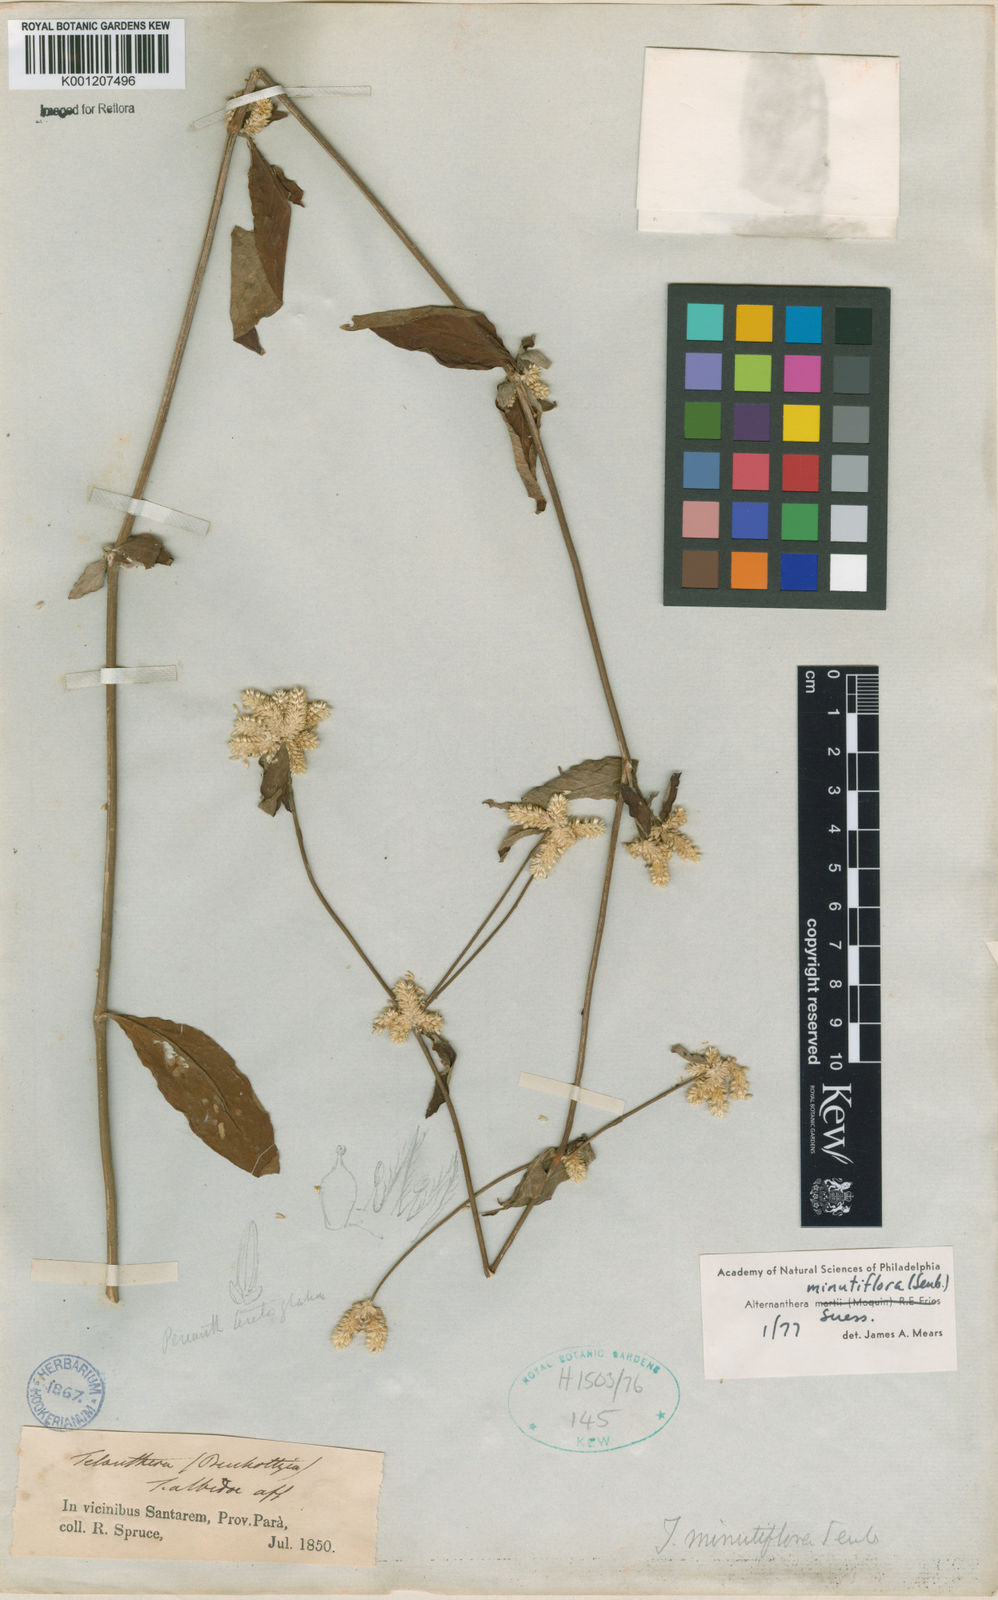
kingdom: Plantae
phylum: Tracheophyta
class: Magnoliopsida
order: Caryophyllales
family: Amaranthaceae
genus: Alternanthera
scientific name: Alternanthera minutiflora
